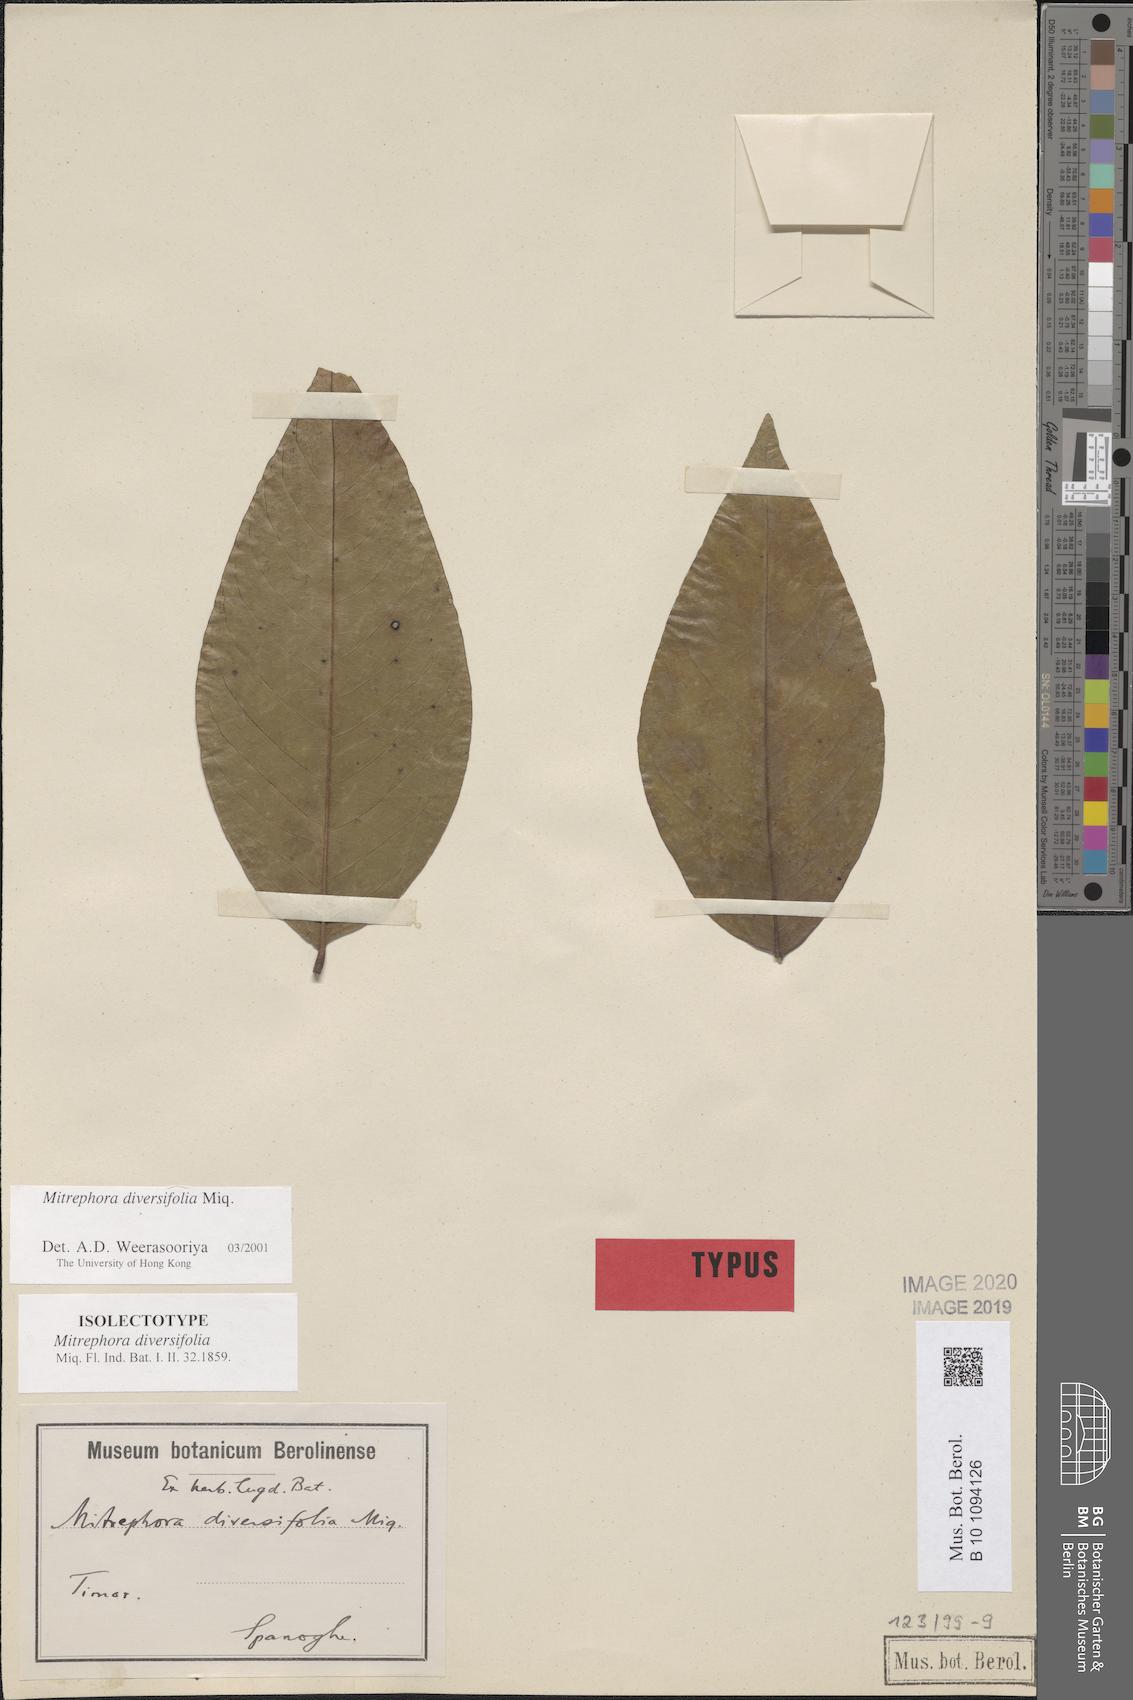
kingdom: Plantae
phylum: Tracheophyta
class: Magnoliopsida
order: Magnoliales
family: Annonaceae
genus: Mitrephora
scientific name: Mitrephora diversifolia
